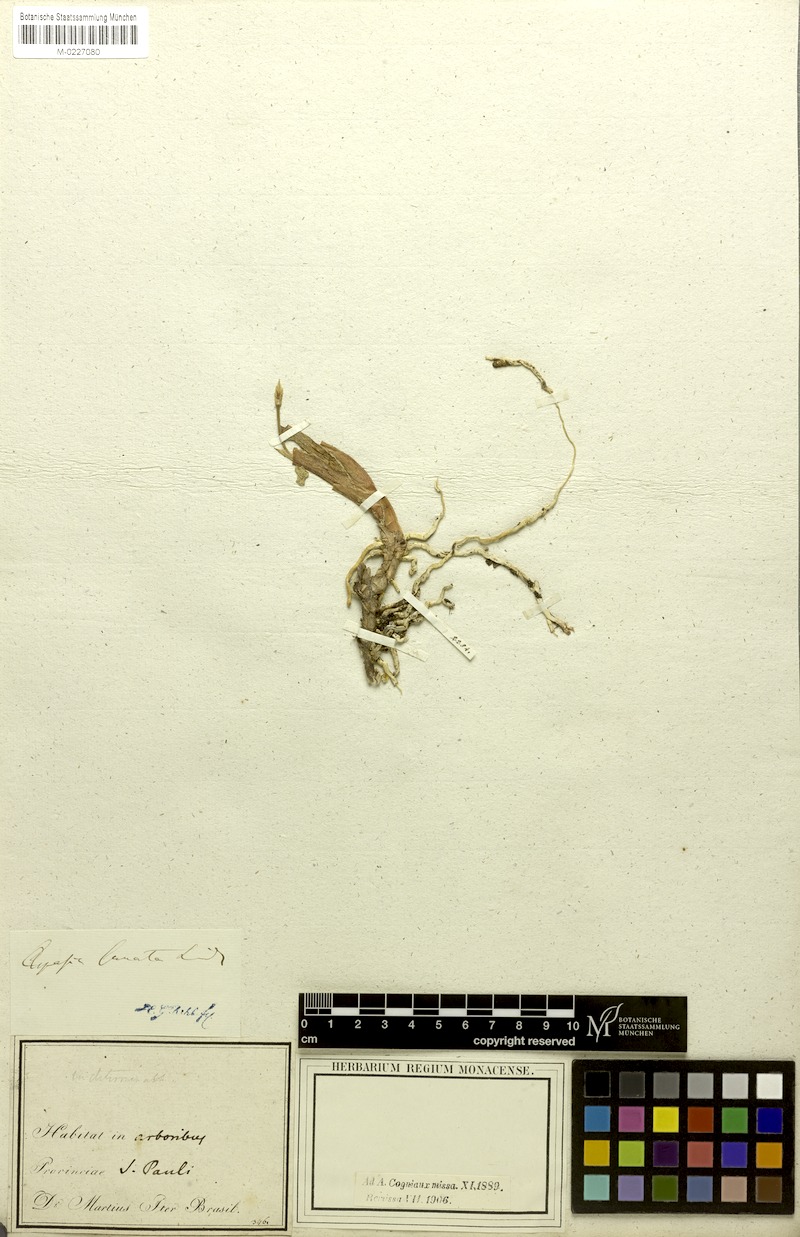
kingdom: Plantae
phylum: Tracheophyta
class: Liliopsida
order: Asparagales
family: Orchidaceae
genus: Aspasia
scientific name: Aspasia lunata
